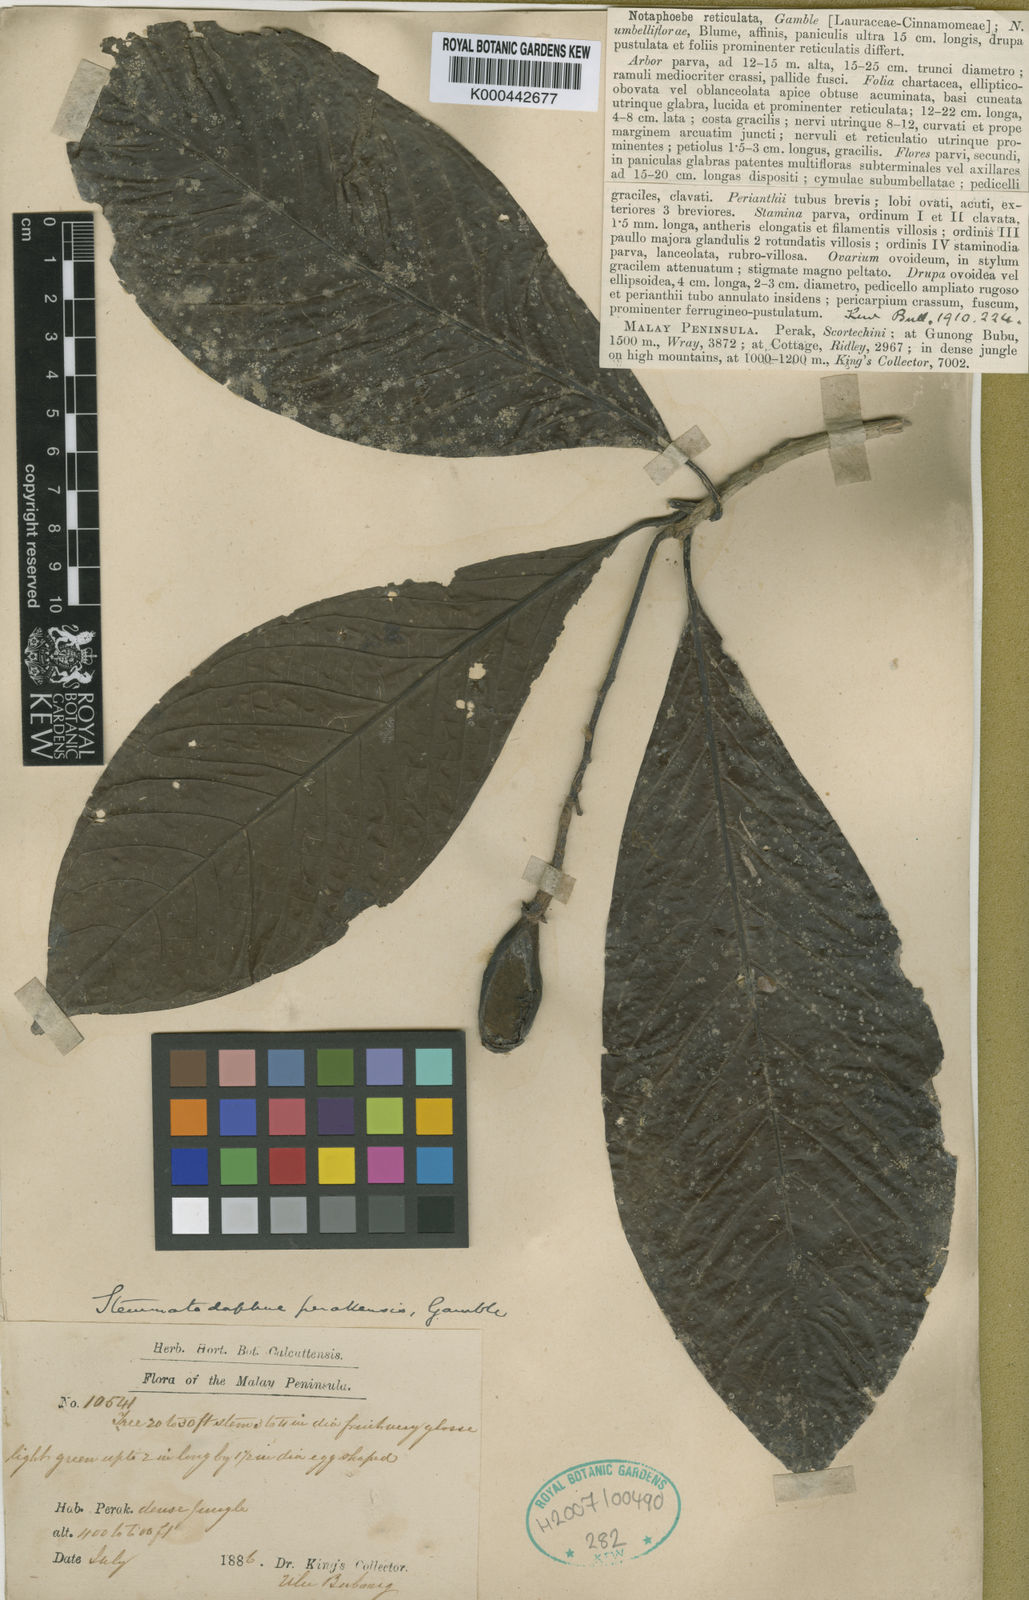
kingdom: Plantae
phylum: Tracheophyta
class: Magnoliopsida
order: Laurales
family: Lauraceae
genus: Alseodaphne
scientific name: Alseodaphne perakensis
